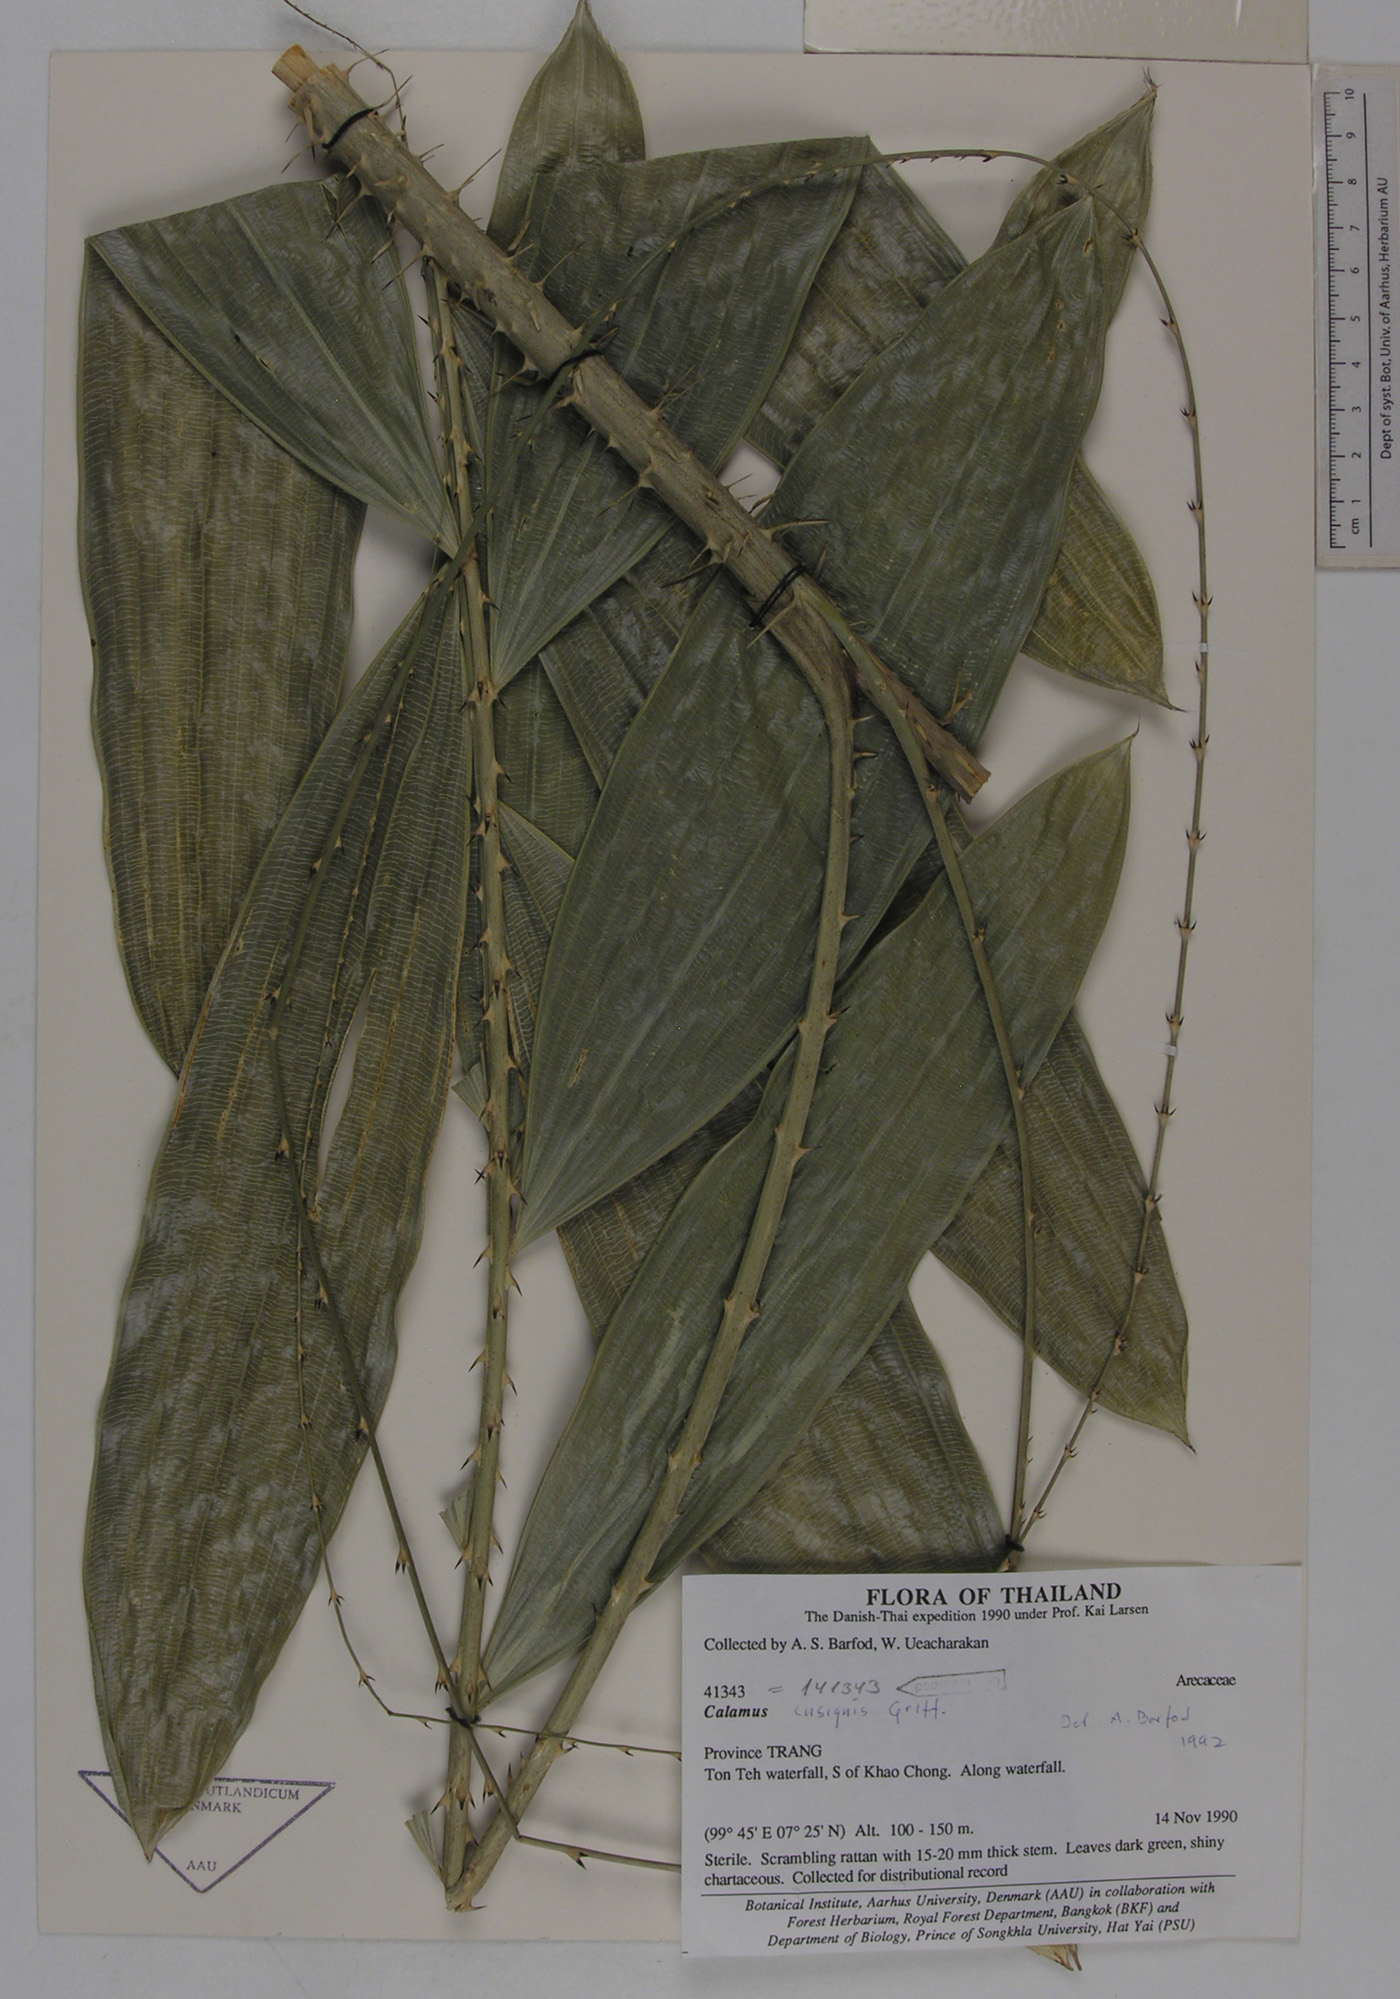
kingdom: Plantae
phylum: Tracheophyta
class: Liliopsida
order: Arecales
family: Arecaceae
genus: Calamus
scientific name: Calamus insignis
